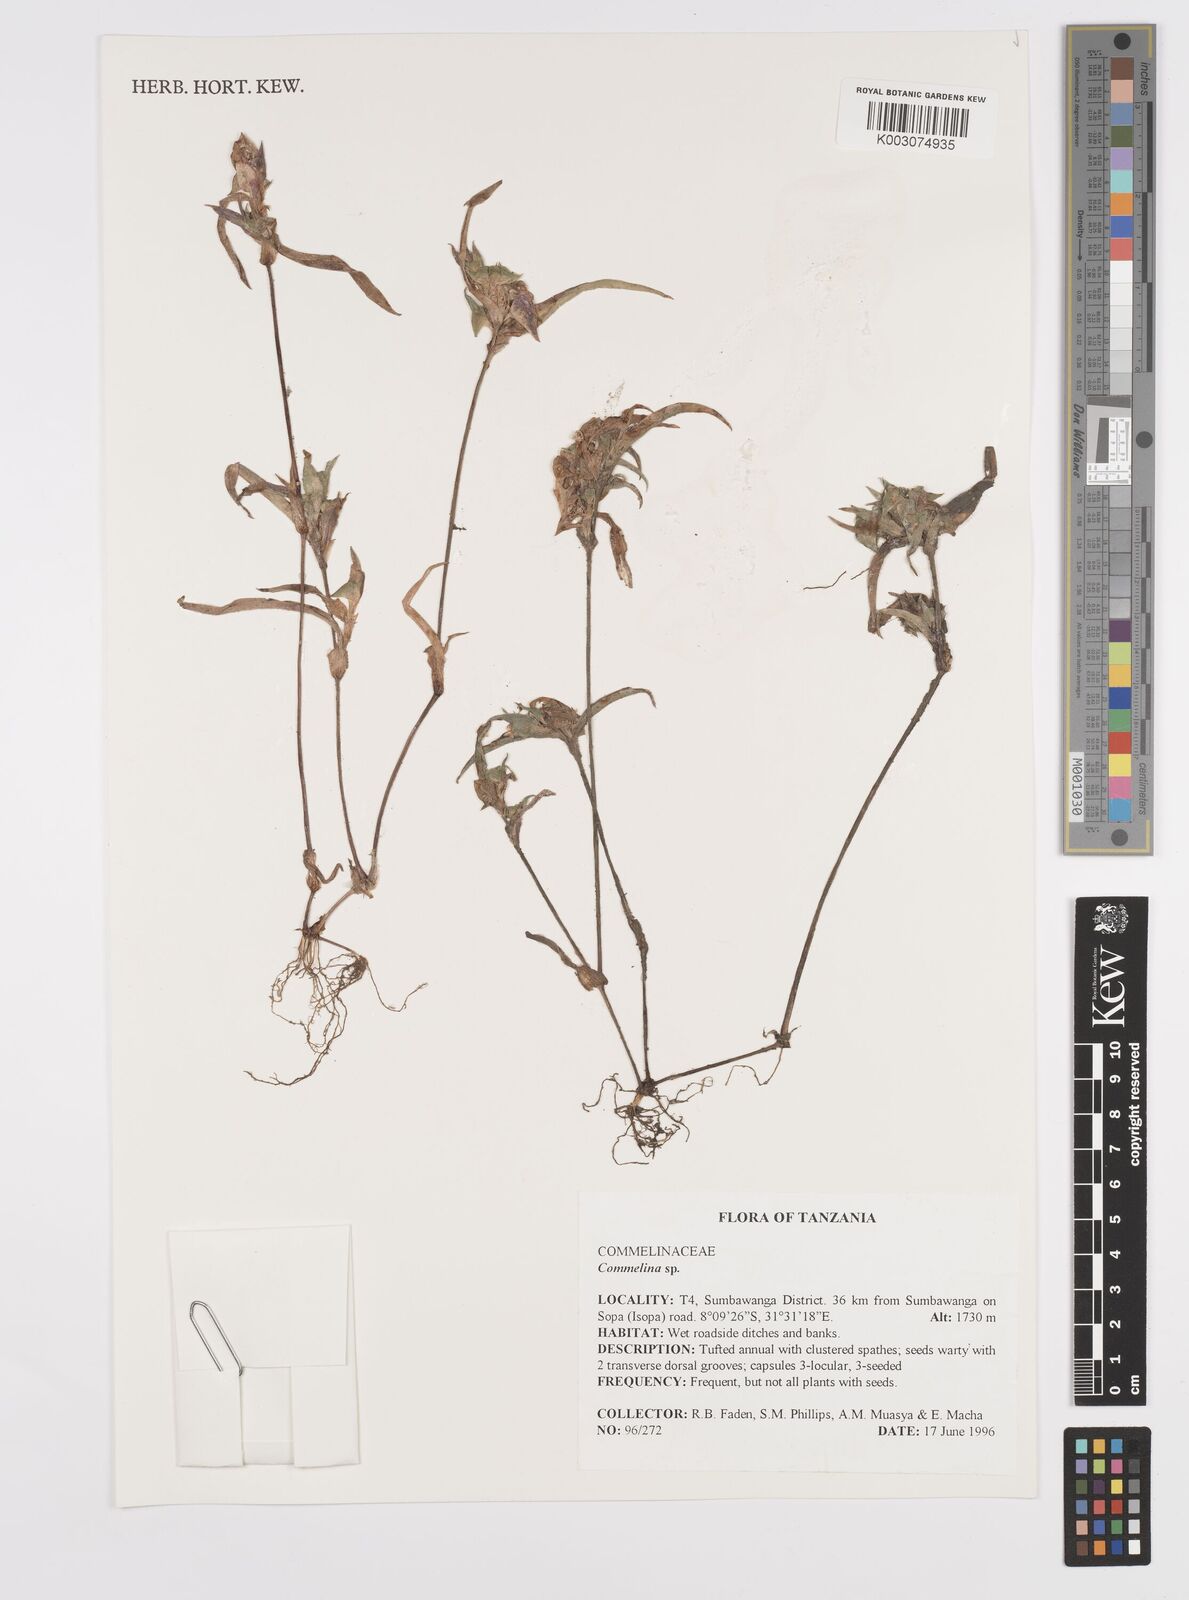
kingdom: Plantae
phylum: Tracheophyta
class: Liliopsida
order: Commelinales
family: Commelinaceae
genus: Commelina
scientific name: Commelina nigritana
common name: African dayflower
